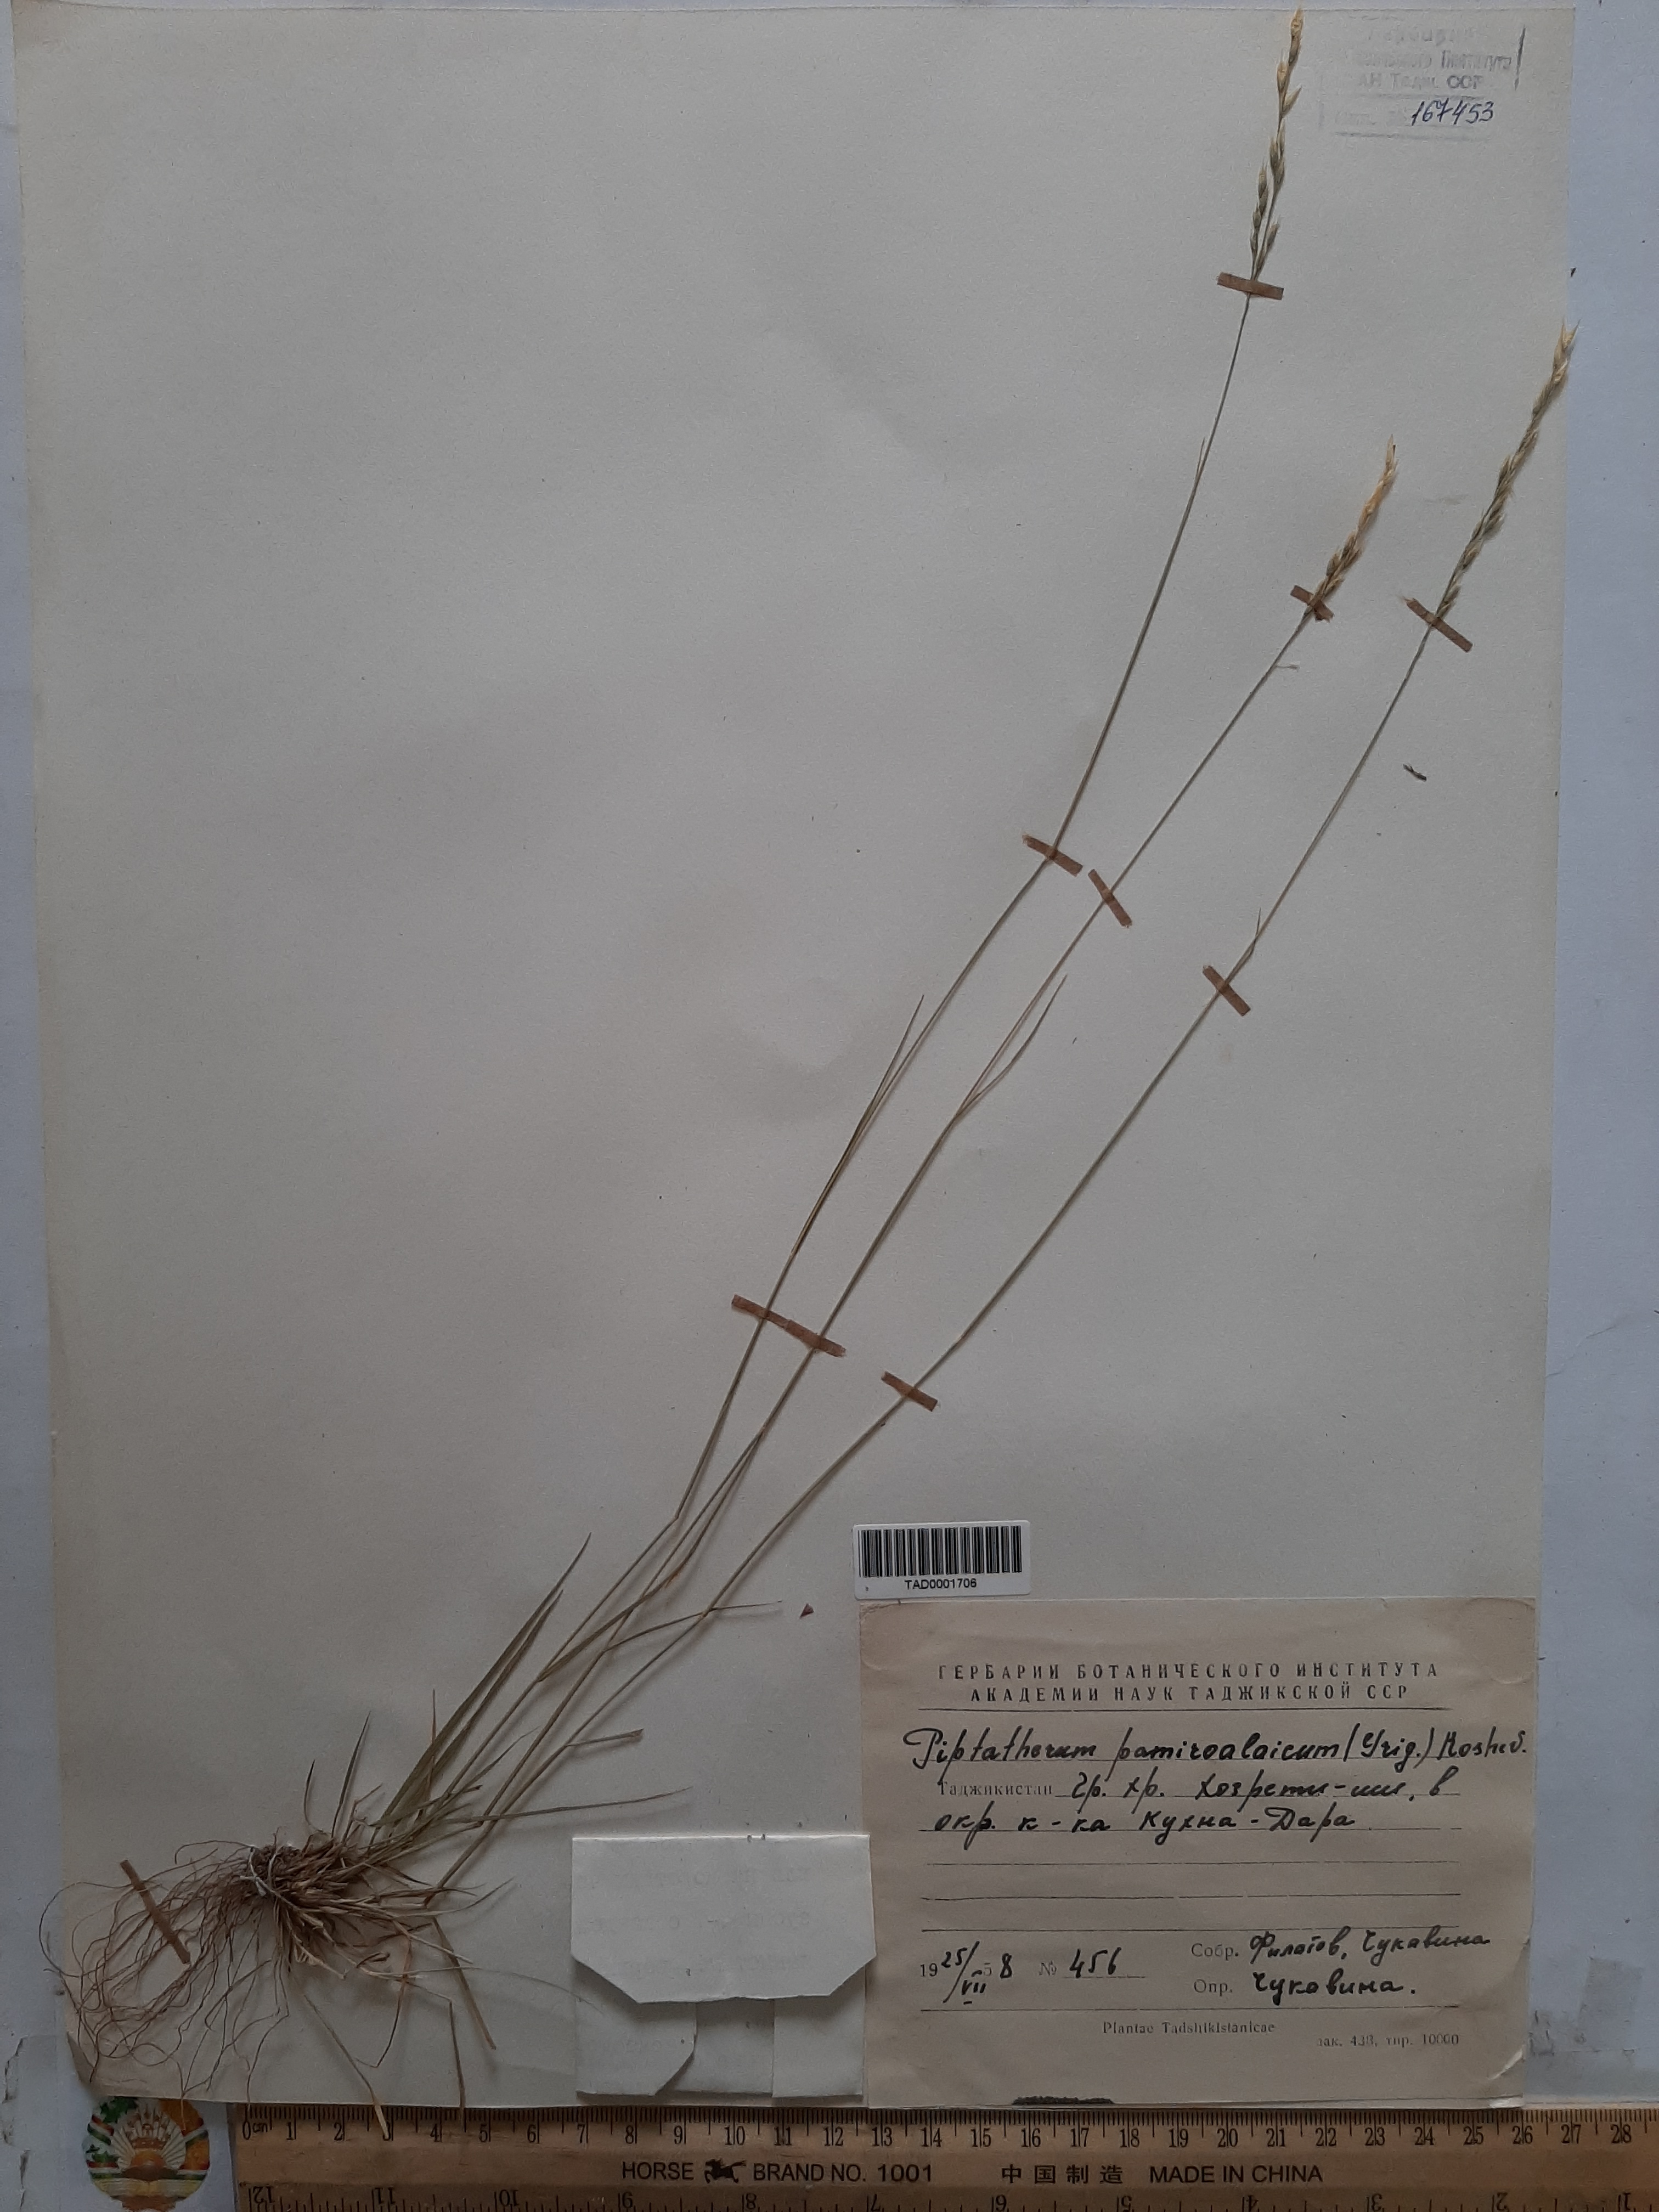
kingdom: Plantae
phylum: Tracheophyta
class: Liliopsida
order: Poales
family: Poaceae
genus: Piptatherum
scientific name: Piptatherum pamiralaicum
